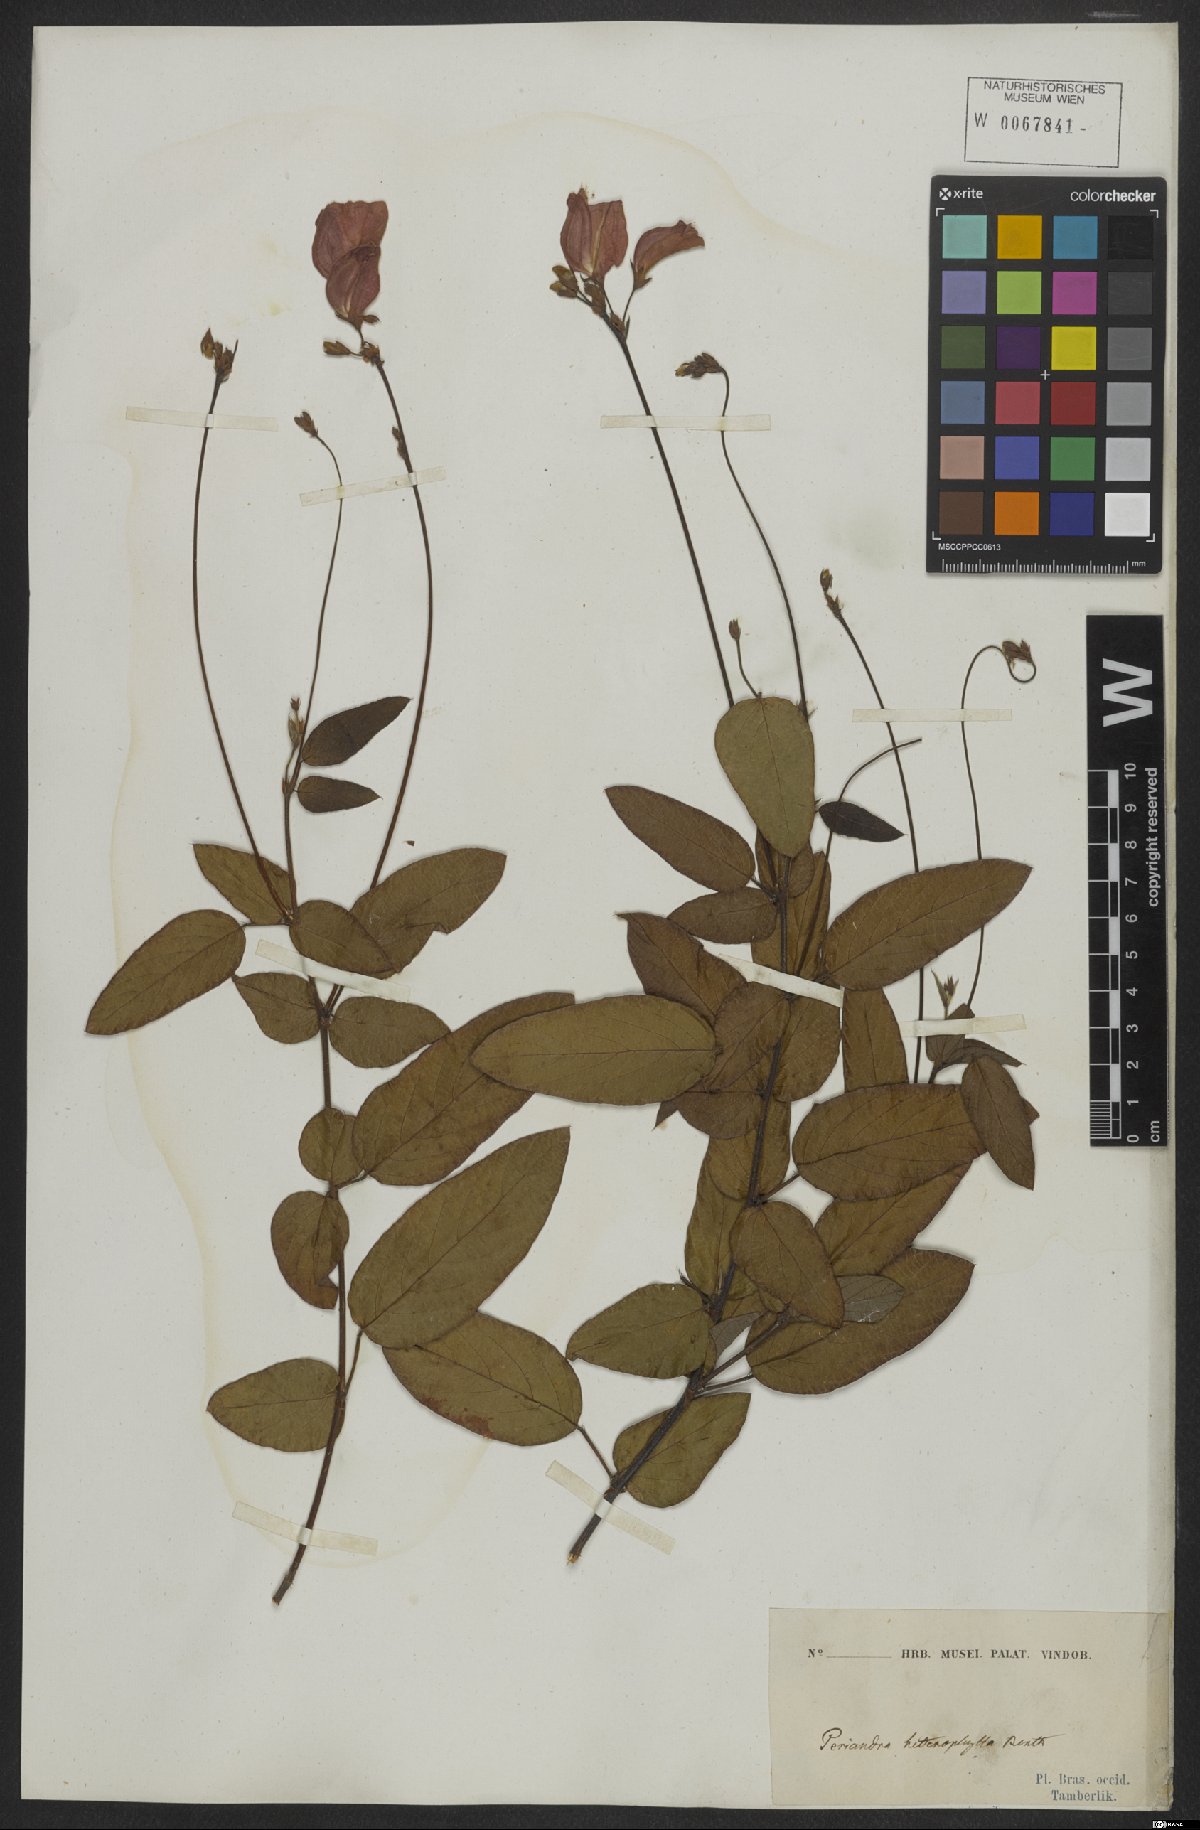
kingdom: Plantae
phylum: Tracheophyta
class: Magnoliopsida
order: Fabales
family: Fabaceae
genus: Periandra
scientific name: Periandra heterophylla
